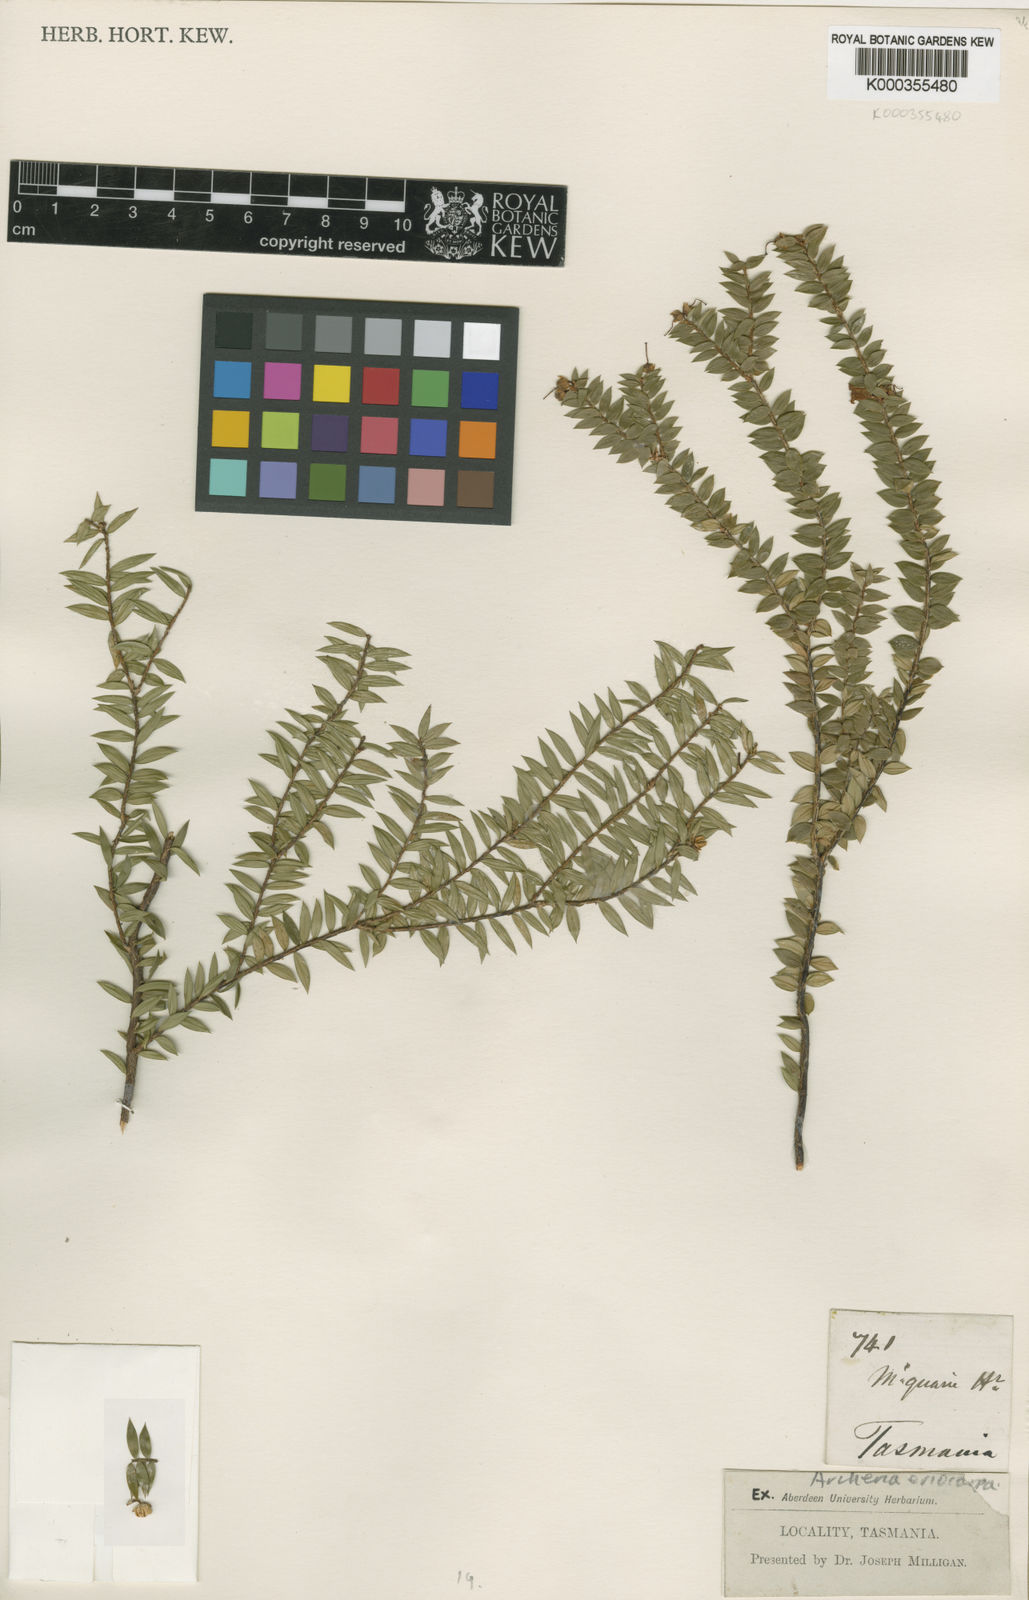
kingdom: Plantae
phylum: Tracheophyta
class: Magnoliopsida
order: Ericales
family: Ericaceae
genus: Archeria
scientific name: Archeria eriocarpa
